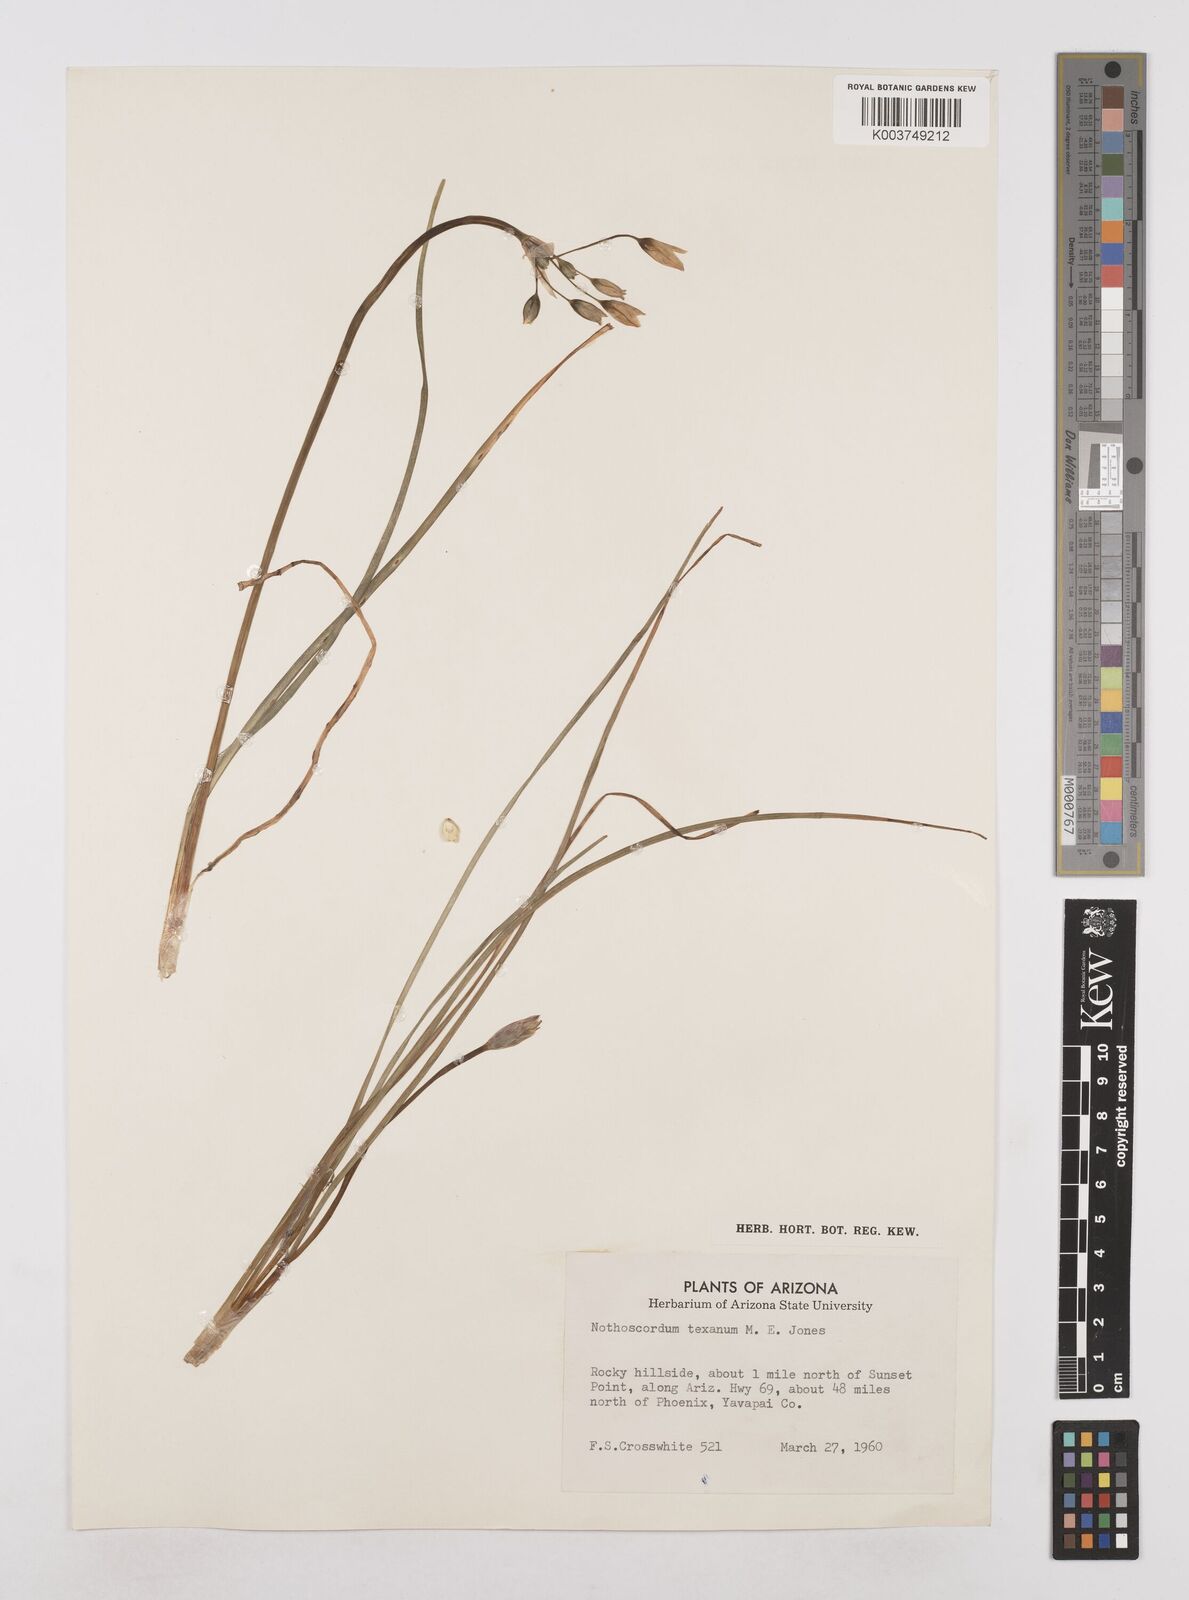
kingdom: Plantae
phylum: Tracheophyta
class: Liliopsida
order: Asparagales
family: Amaryllidaceae
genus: Nothoscordum
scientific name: Nothoscordum bivalve
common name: Crow-poison
